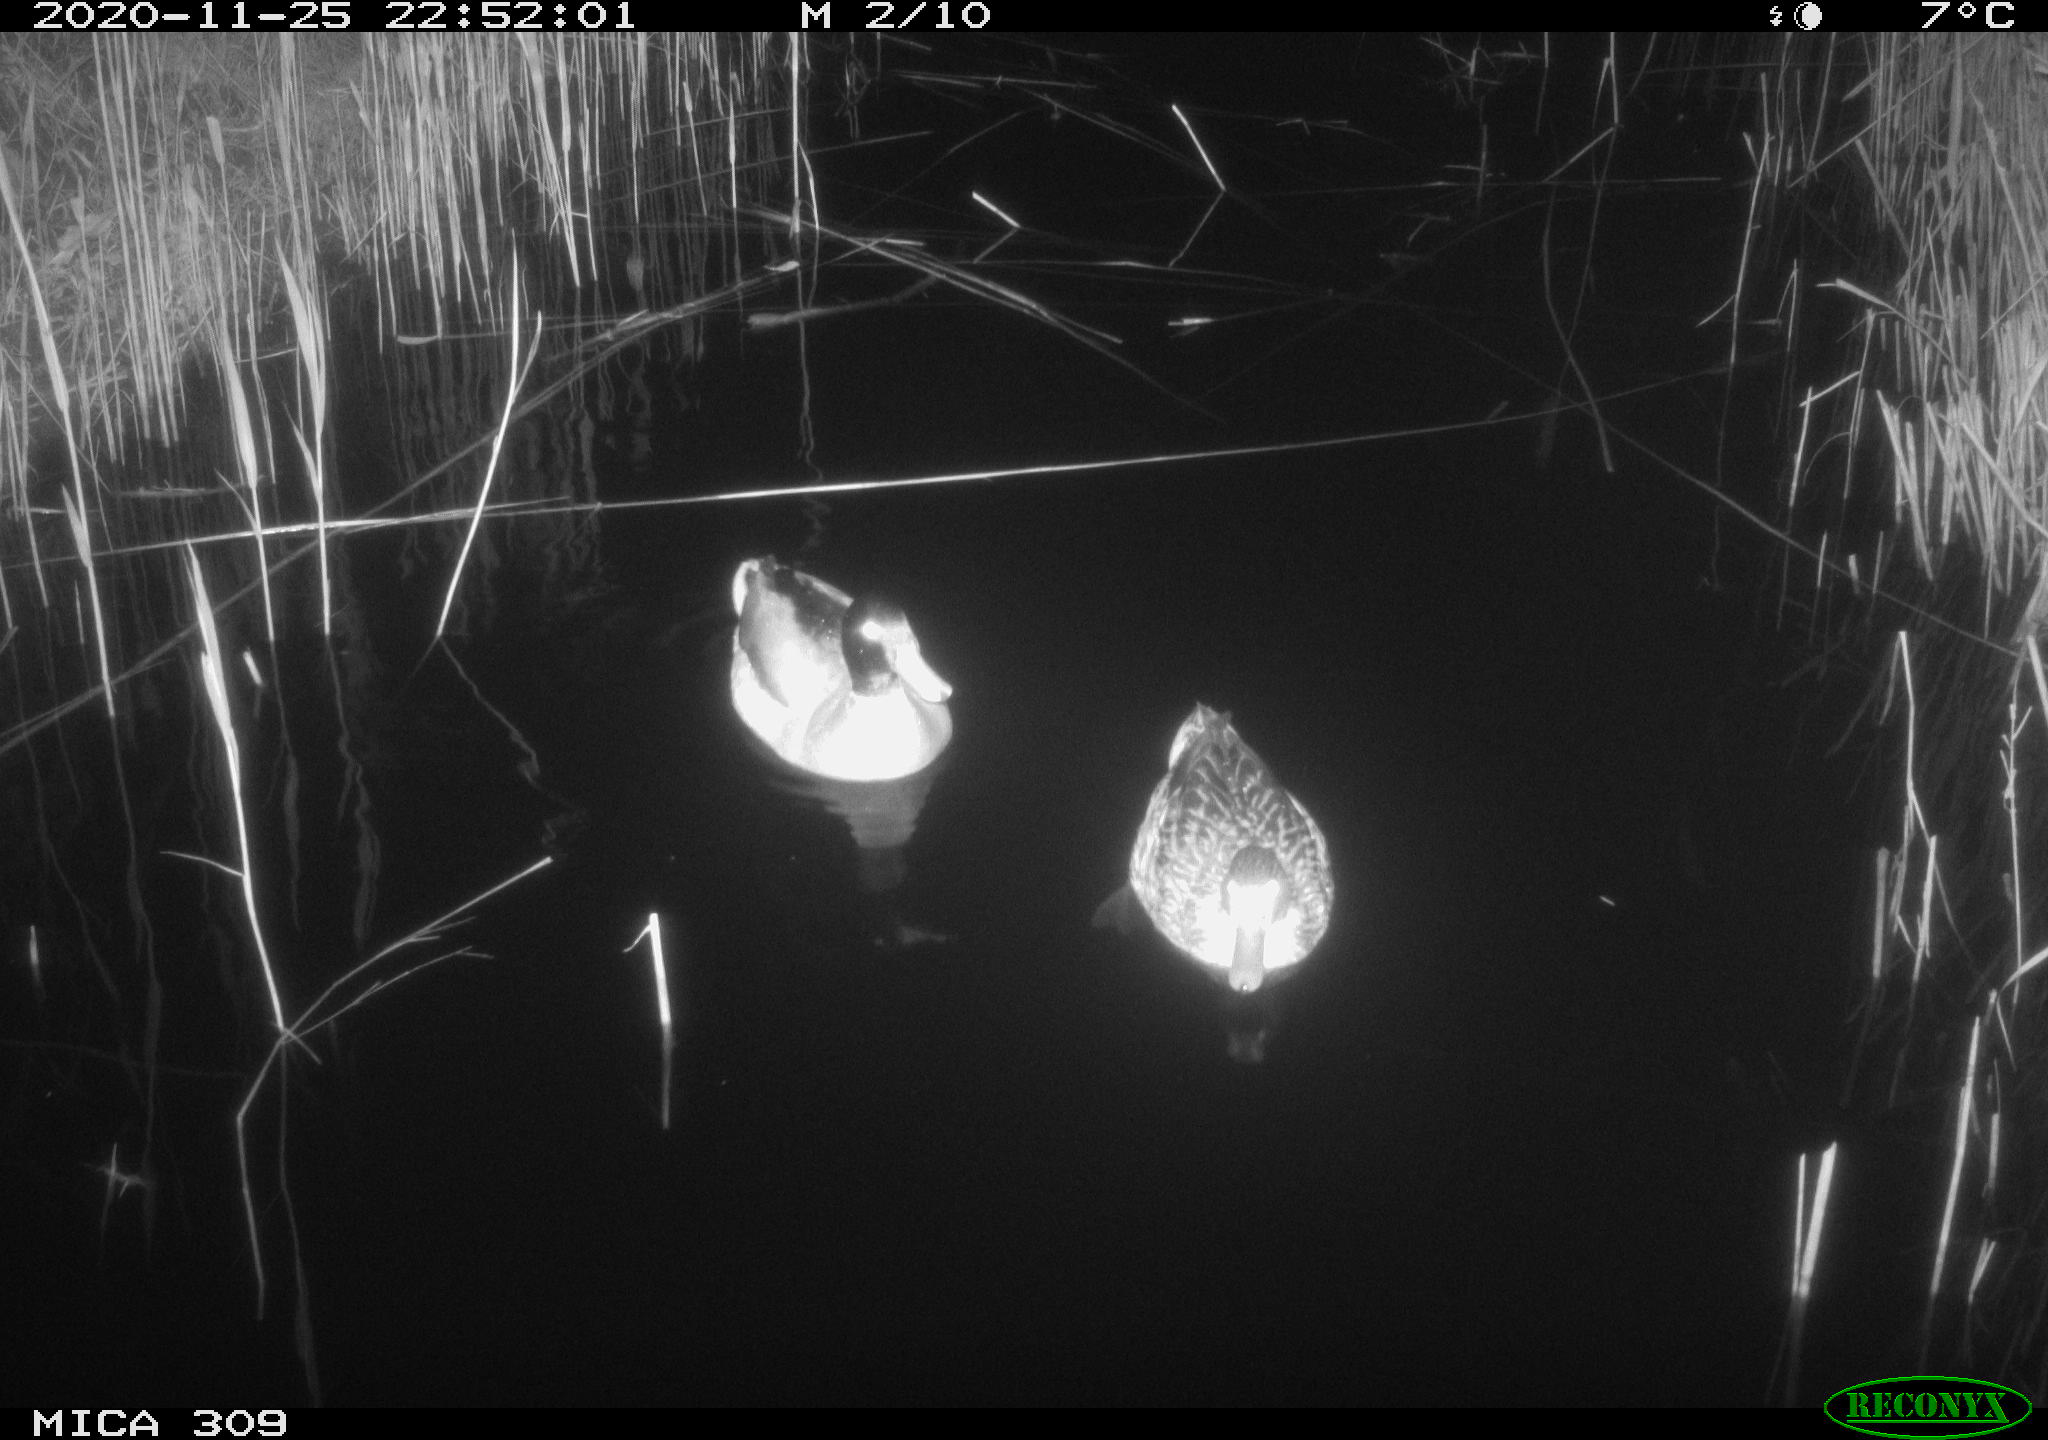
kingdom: Animalia
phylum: Chordata
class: Aves
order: Anseriformes
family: Anatidae
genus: Anas
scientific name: Anas platyrhynchos
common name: Mallard
